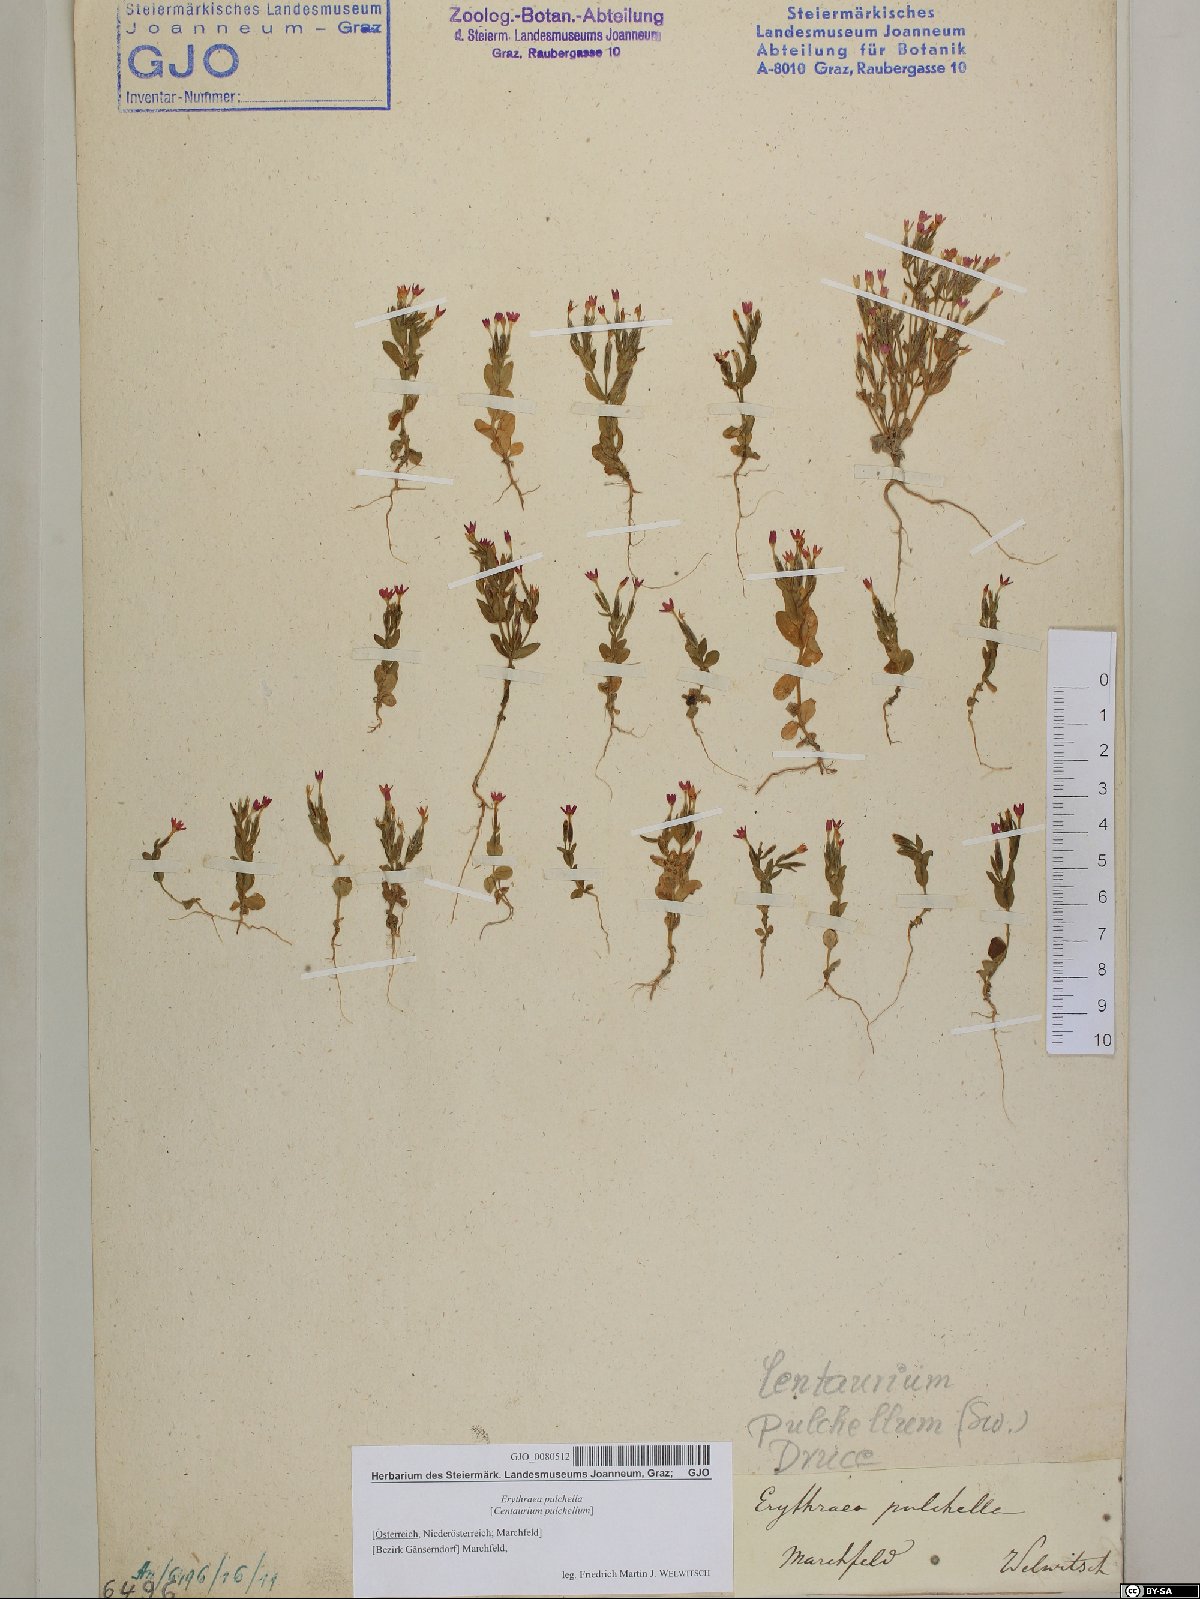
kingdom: Plantae
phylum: Tracheophyta
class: Magnoliopsida
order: Gentianales
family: Gentianaceae
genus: Centaurium
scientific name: Centaurium pulchellum
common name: Lesser centaury
